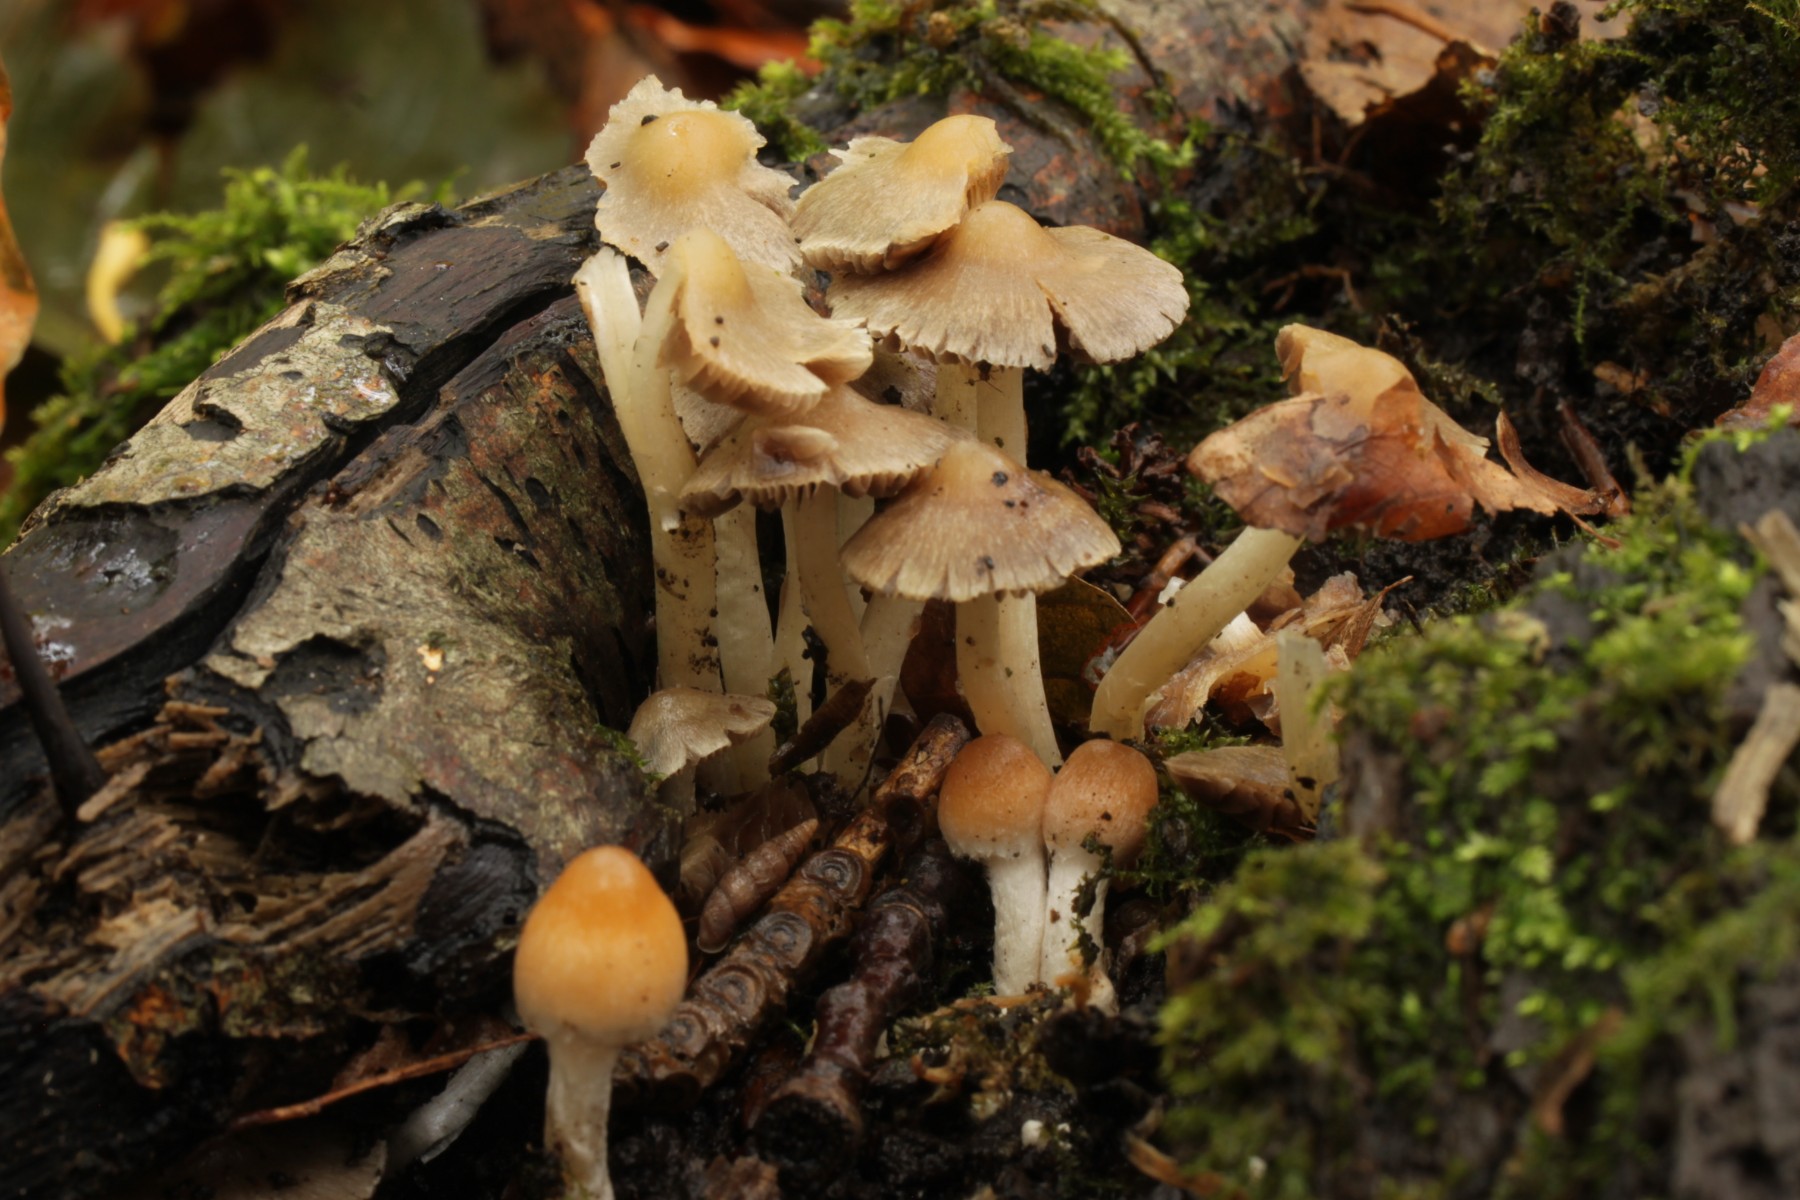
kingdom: Fungi
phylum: Basidiomycota
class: Agaricomycetes
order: Agaricales
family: Psathyrellaceae
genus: Coprinopsis
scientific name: Coprinopsis pannucioides
